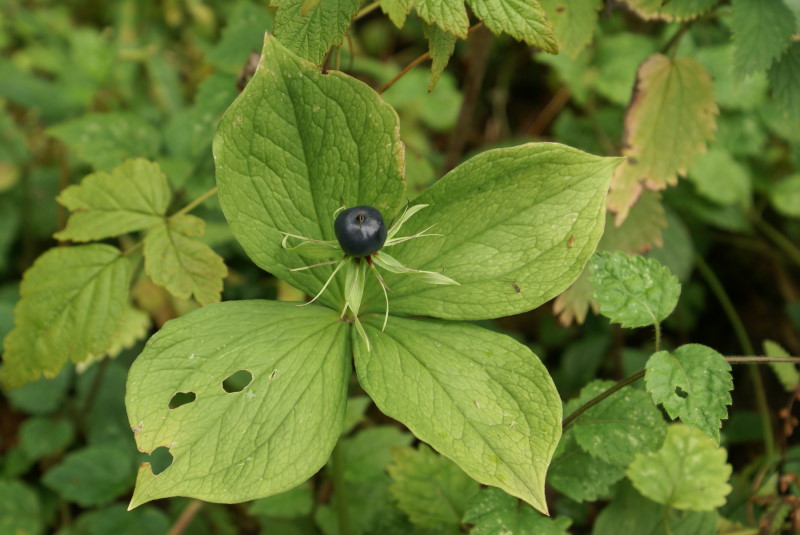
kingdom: Plantae
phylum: Tracheophyta
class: Liliopsida
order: Liliales
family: Melanthiaceae
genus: Paris
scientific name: Paris quadrifolia
